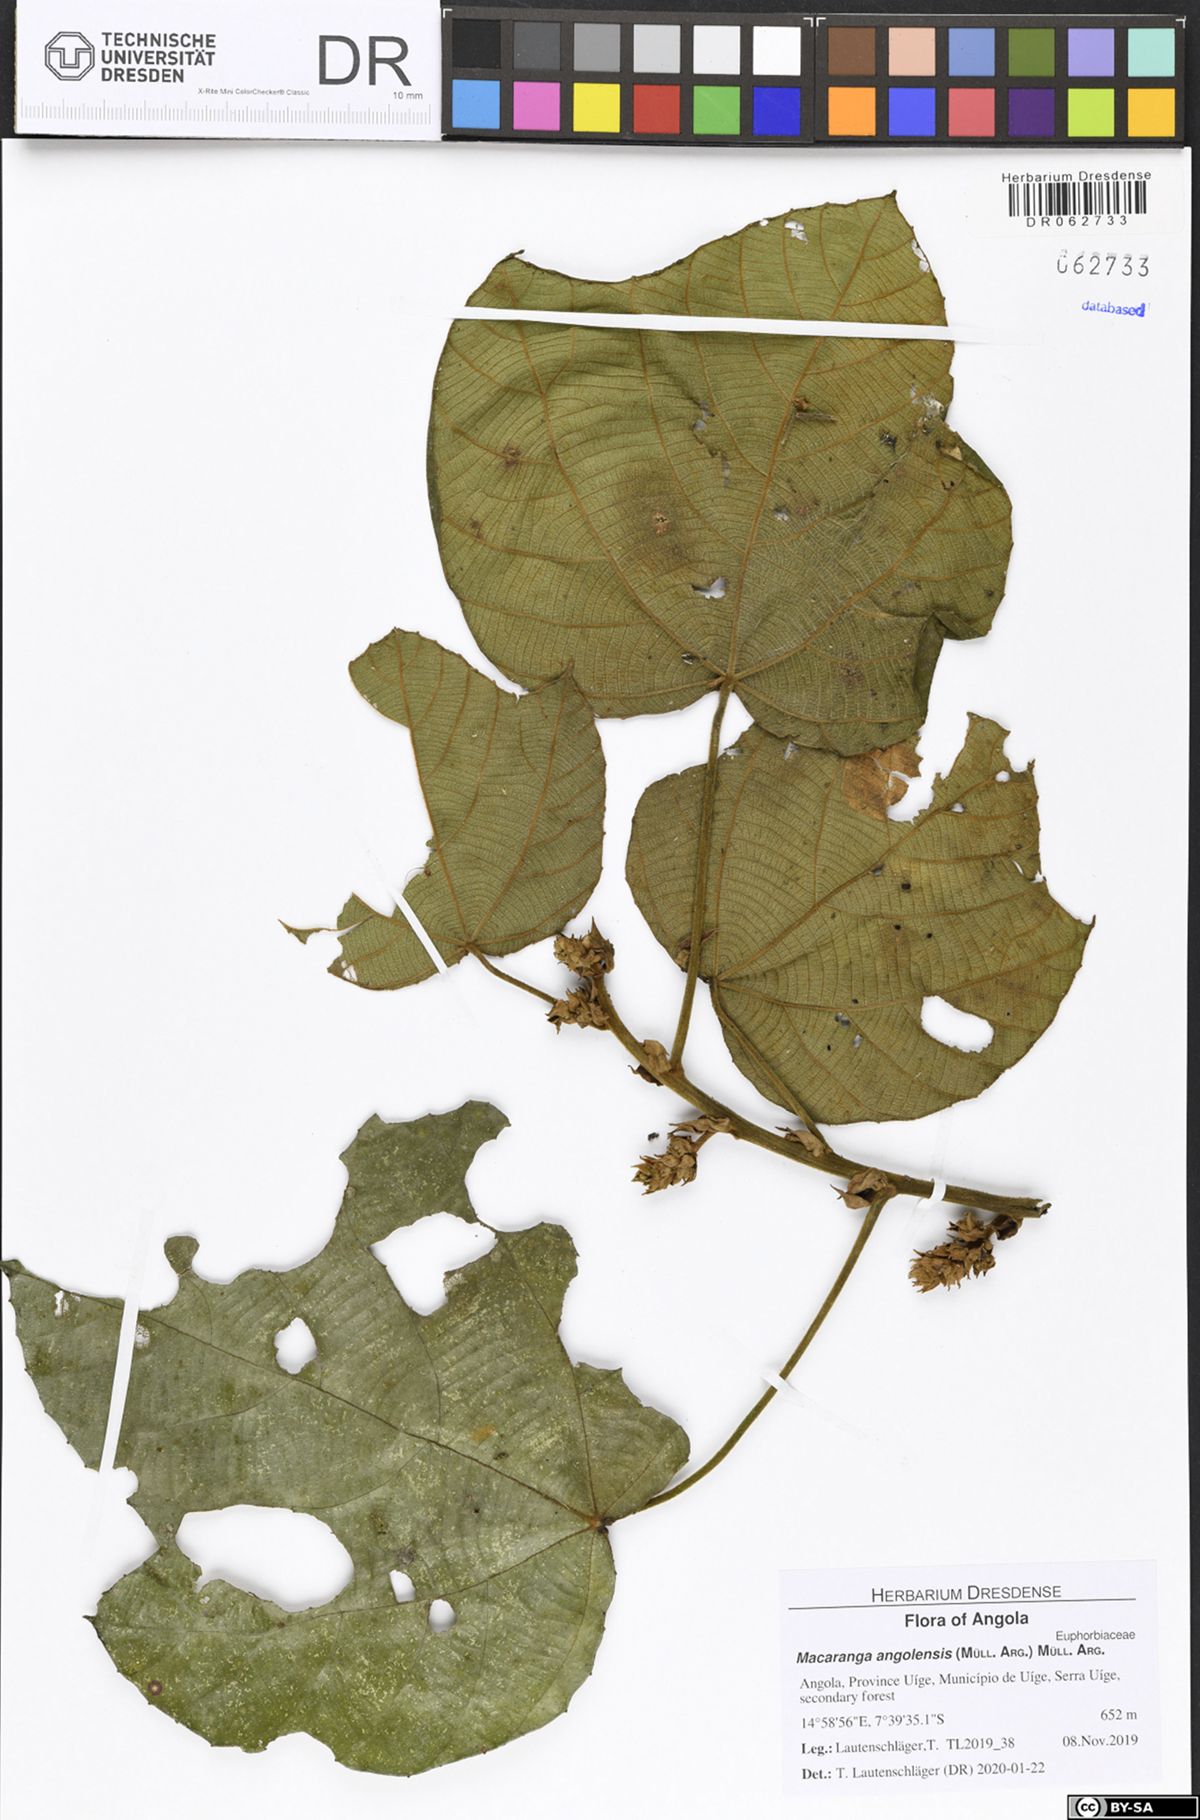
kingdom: Plantae
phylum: Tracheophyta
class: Magnoliopsida
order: Malpighiales
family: Euphorbiaceae
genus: Macaranga
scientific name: Macaranga angolensis
